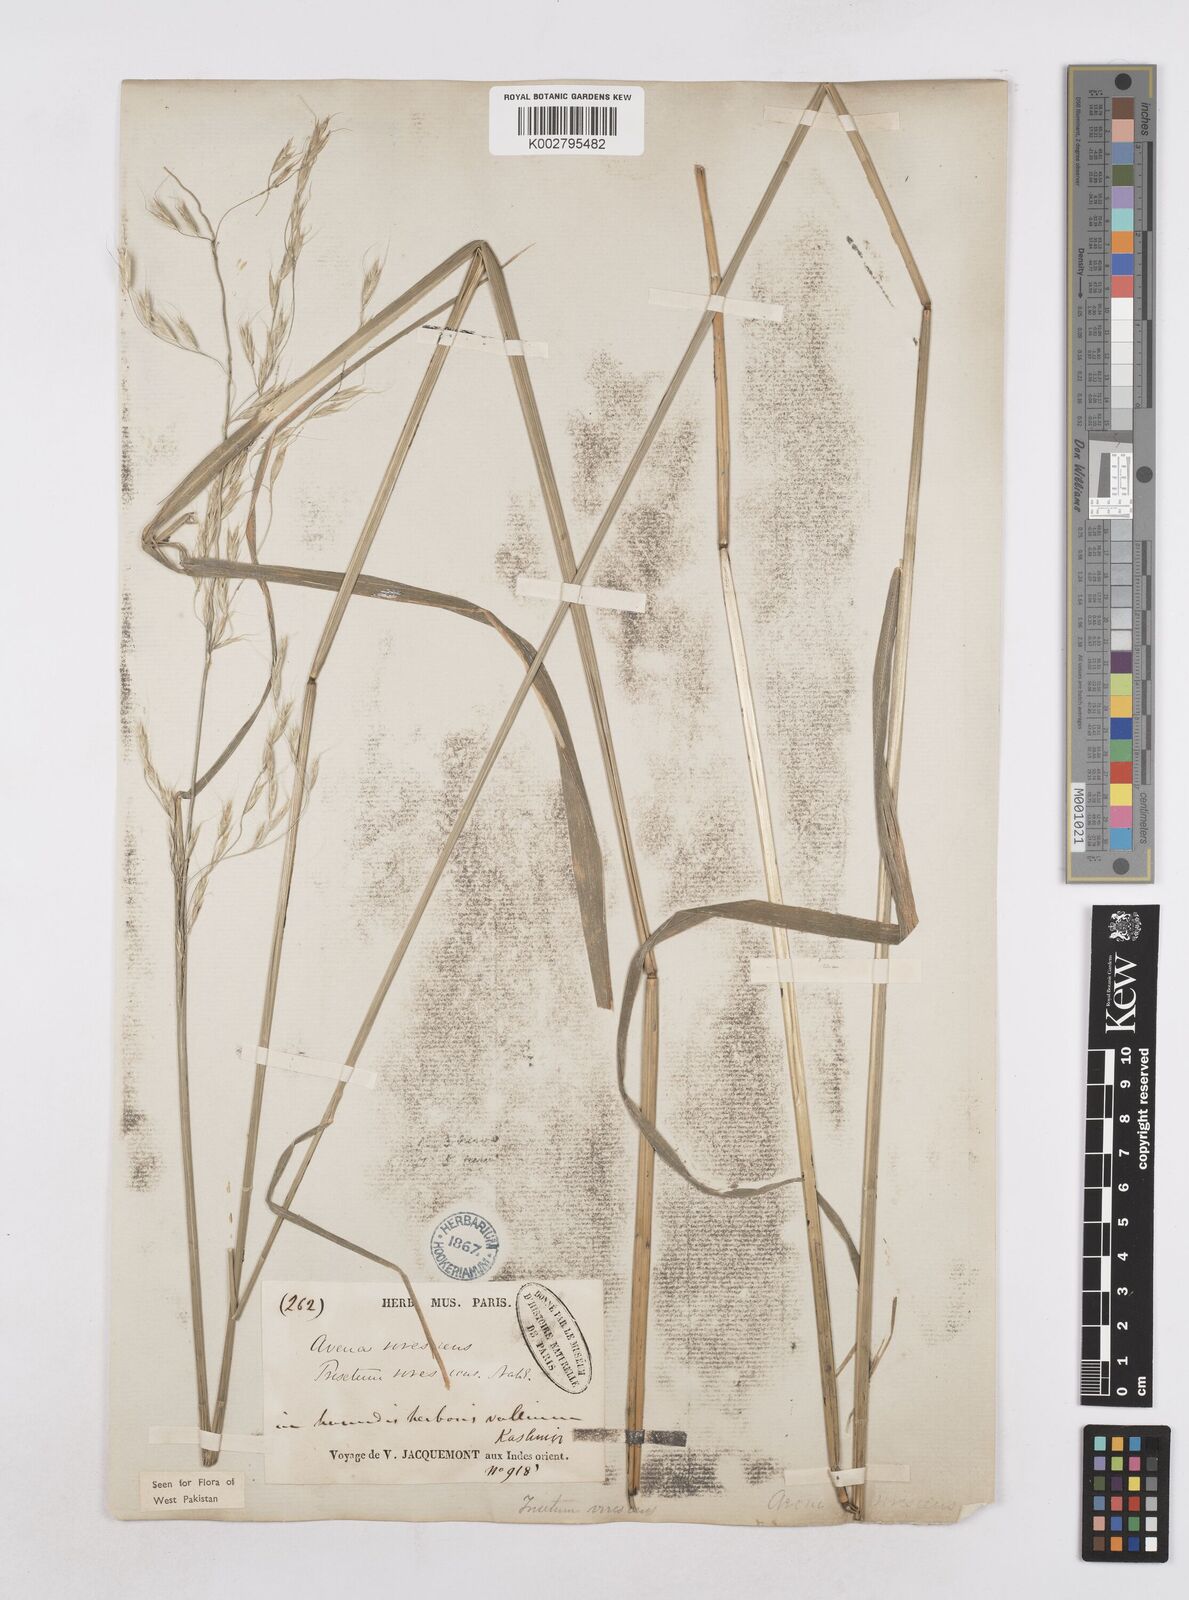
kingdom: Plantae
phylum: Tracheophyta
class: Liliopsida
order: Poales
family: Poaceae
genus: Trisetopsis
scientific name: Trisetopsis junghuhnii
